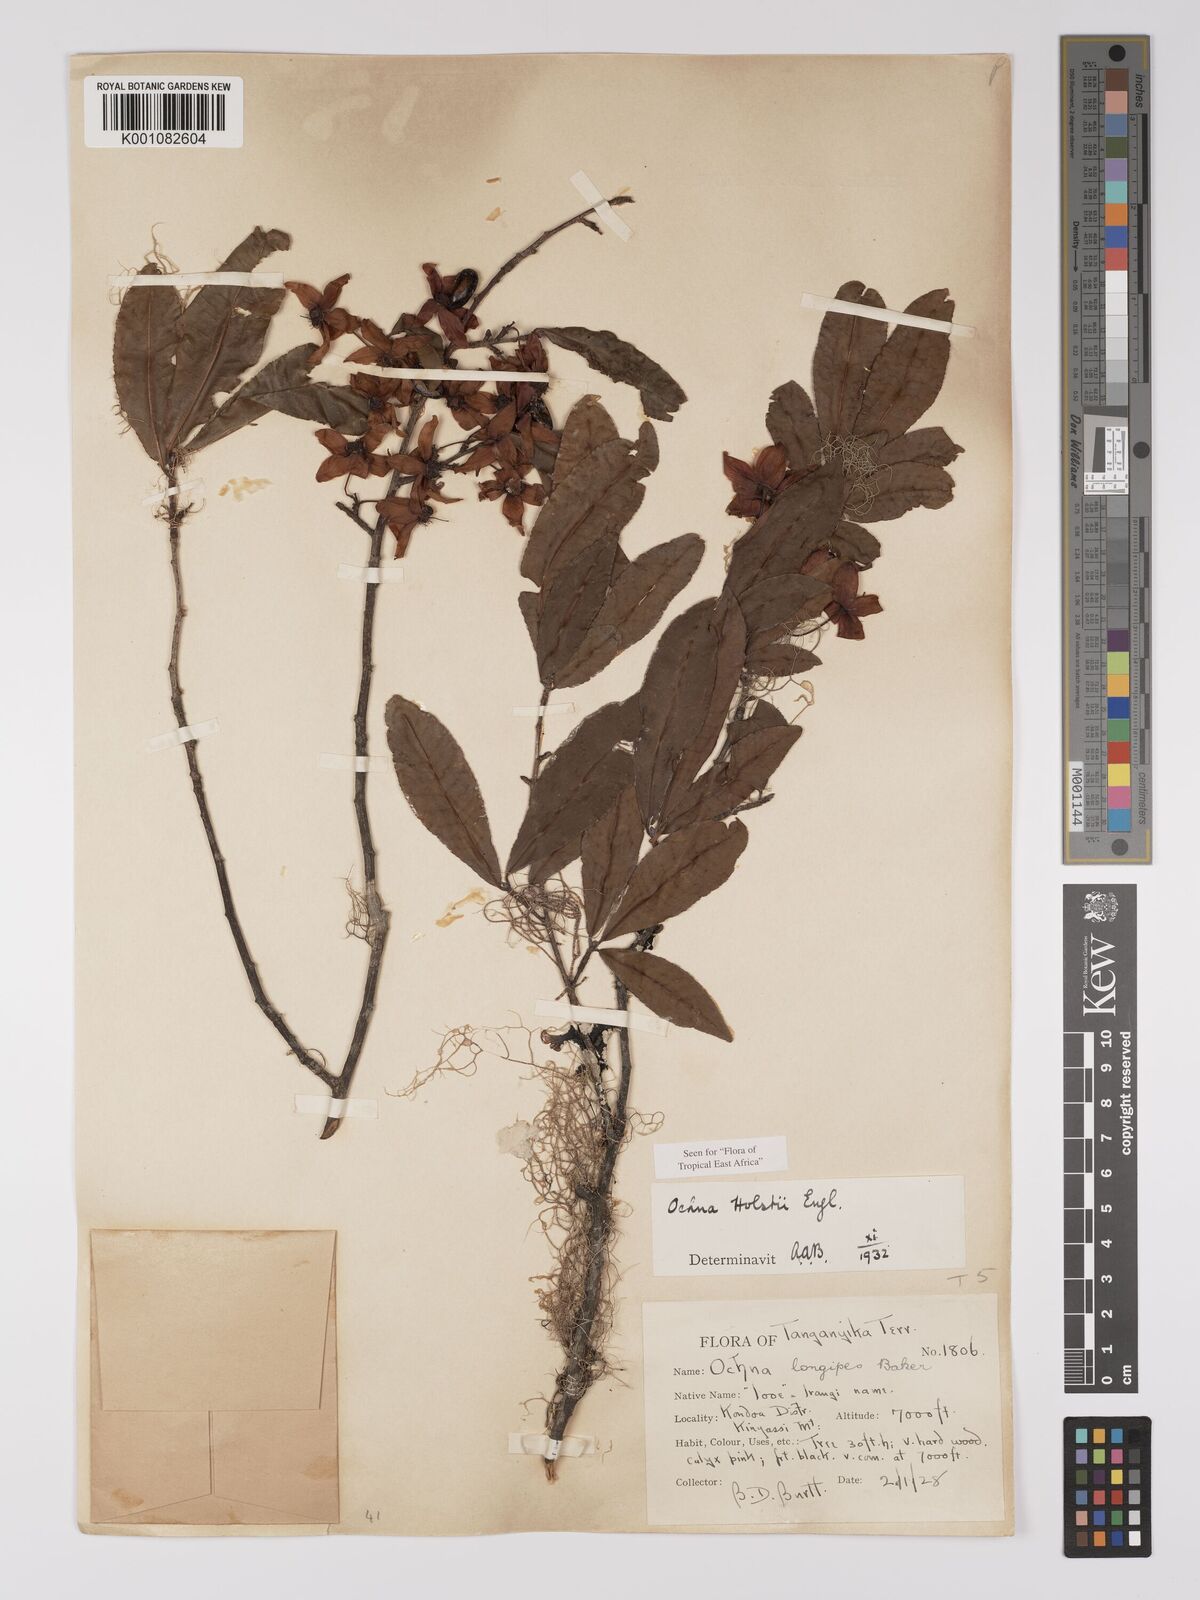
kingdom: Plantae
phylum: Tracheophyta
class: Magnoliopsida
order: Malpighiales
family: Ochnaceae
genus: Ochna
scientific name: Ochna holstii
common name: Red ironwood
